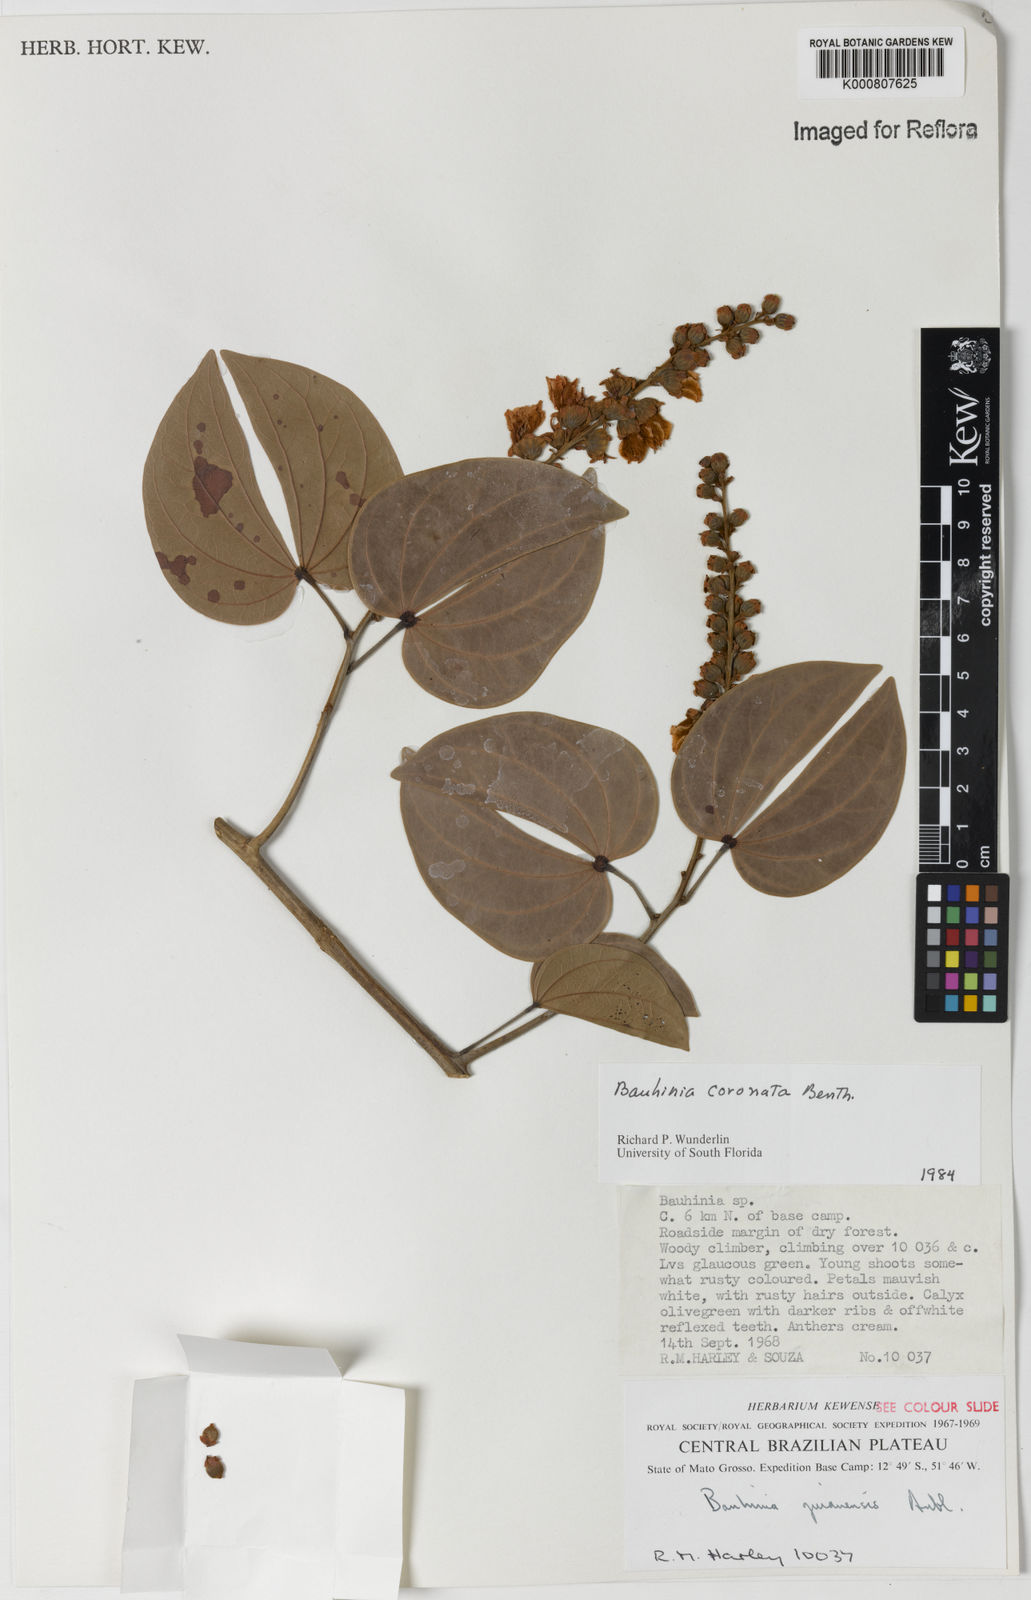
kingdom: Plantae
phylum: Tracheophyta
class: Magnoliopsida
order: Fabales
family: Fabaceae
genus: Schnella
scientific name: Schnella outimouta
